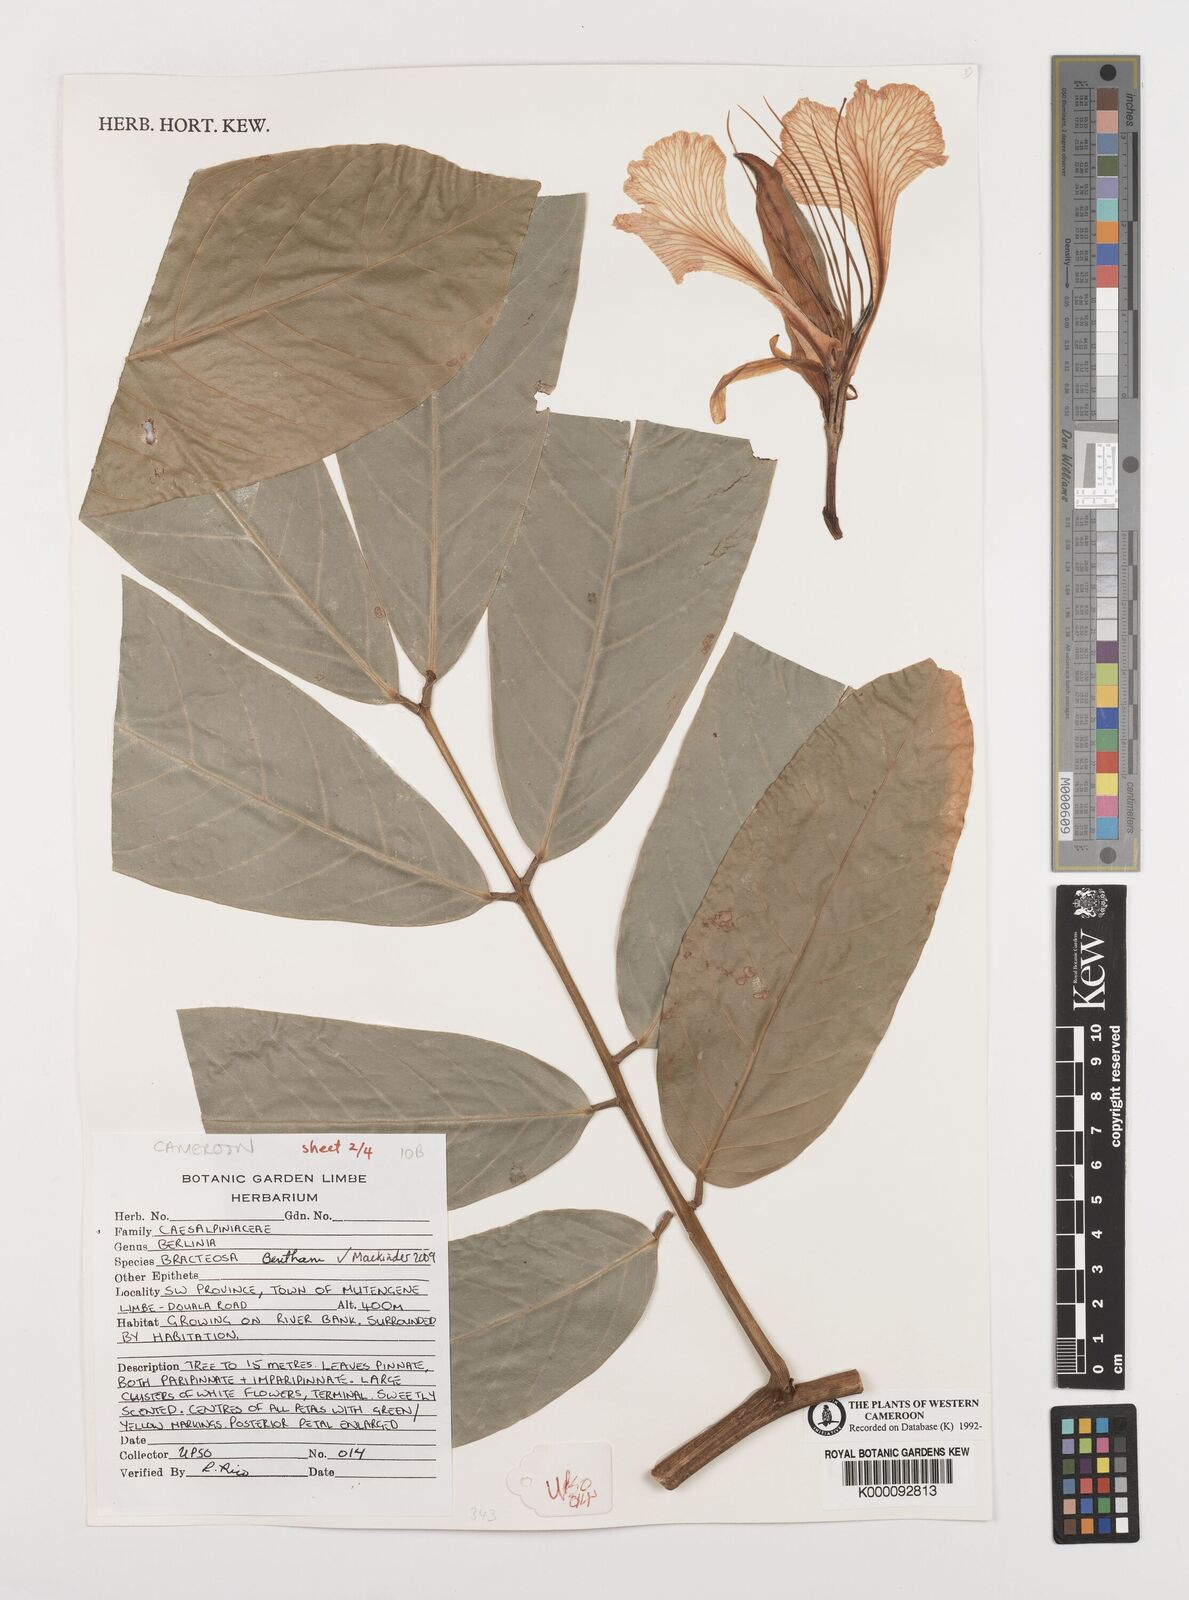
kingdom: Plantae
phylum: Tracheophyta
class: Magnoliopsida
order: Fabales
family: Fabaceae
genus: Berlinia
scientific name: Berlinia bracteosa
